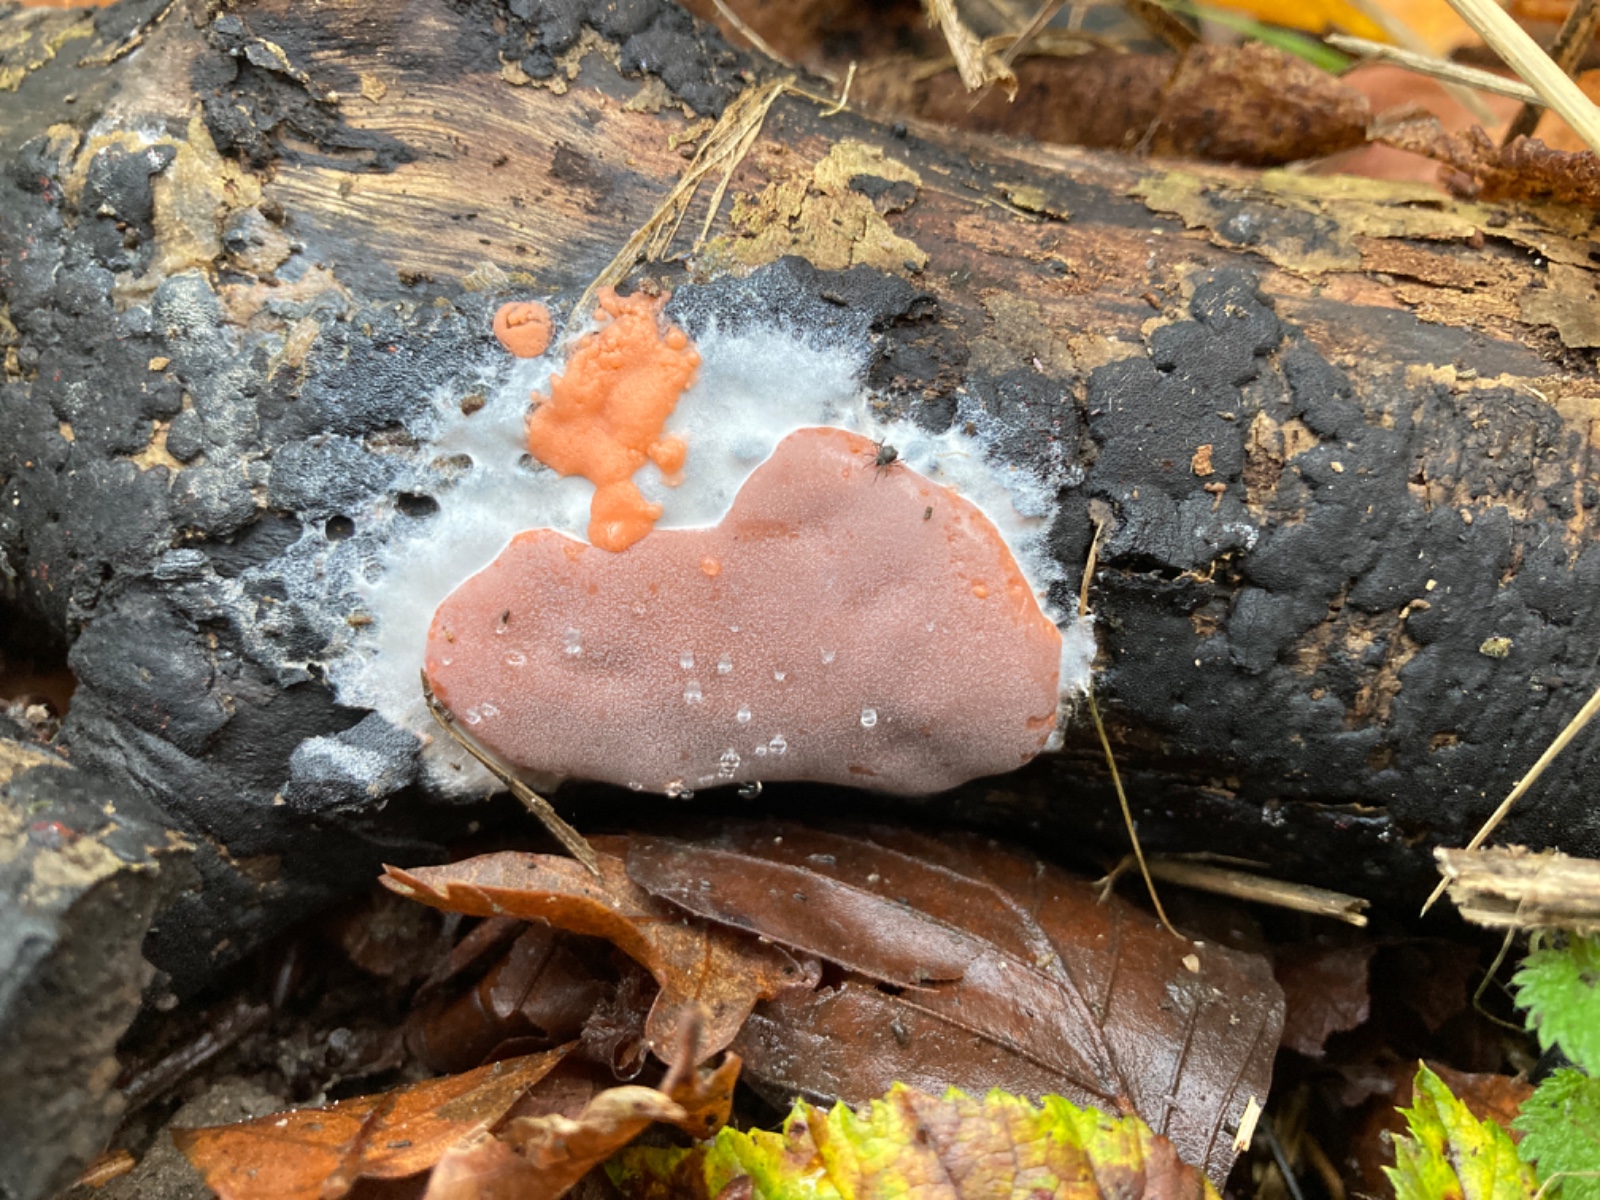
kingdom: Protozoa
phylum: Mycetozoa
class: Myxomycetes
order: Trichiales
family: Dictydiaethaliaceae
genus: Dictydiaethalium
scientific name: Dictydiaethalium plumbeum
